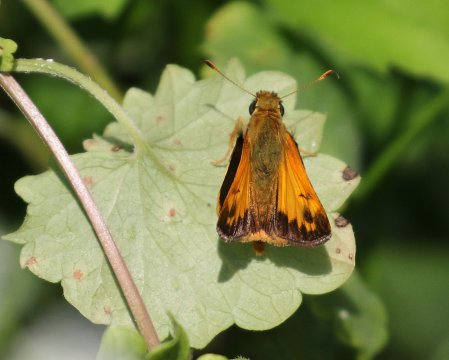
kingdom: Animalia
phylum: Arthropoda
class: Insecta
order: Lepidoptera
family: Hesperiidae
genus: Lon
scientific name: Lon zabulon
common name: Zabulon Skipper
